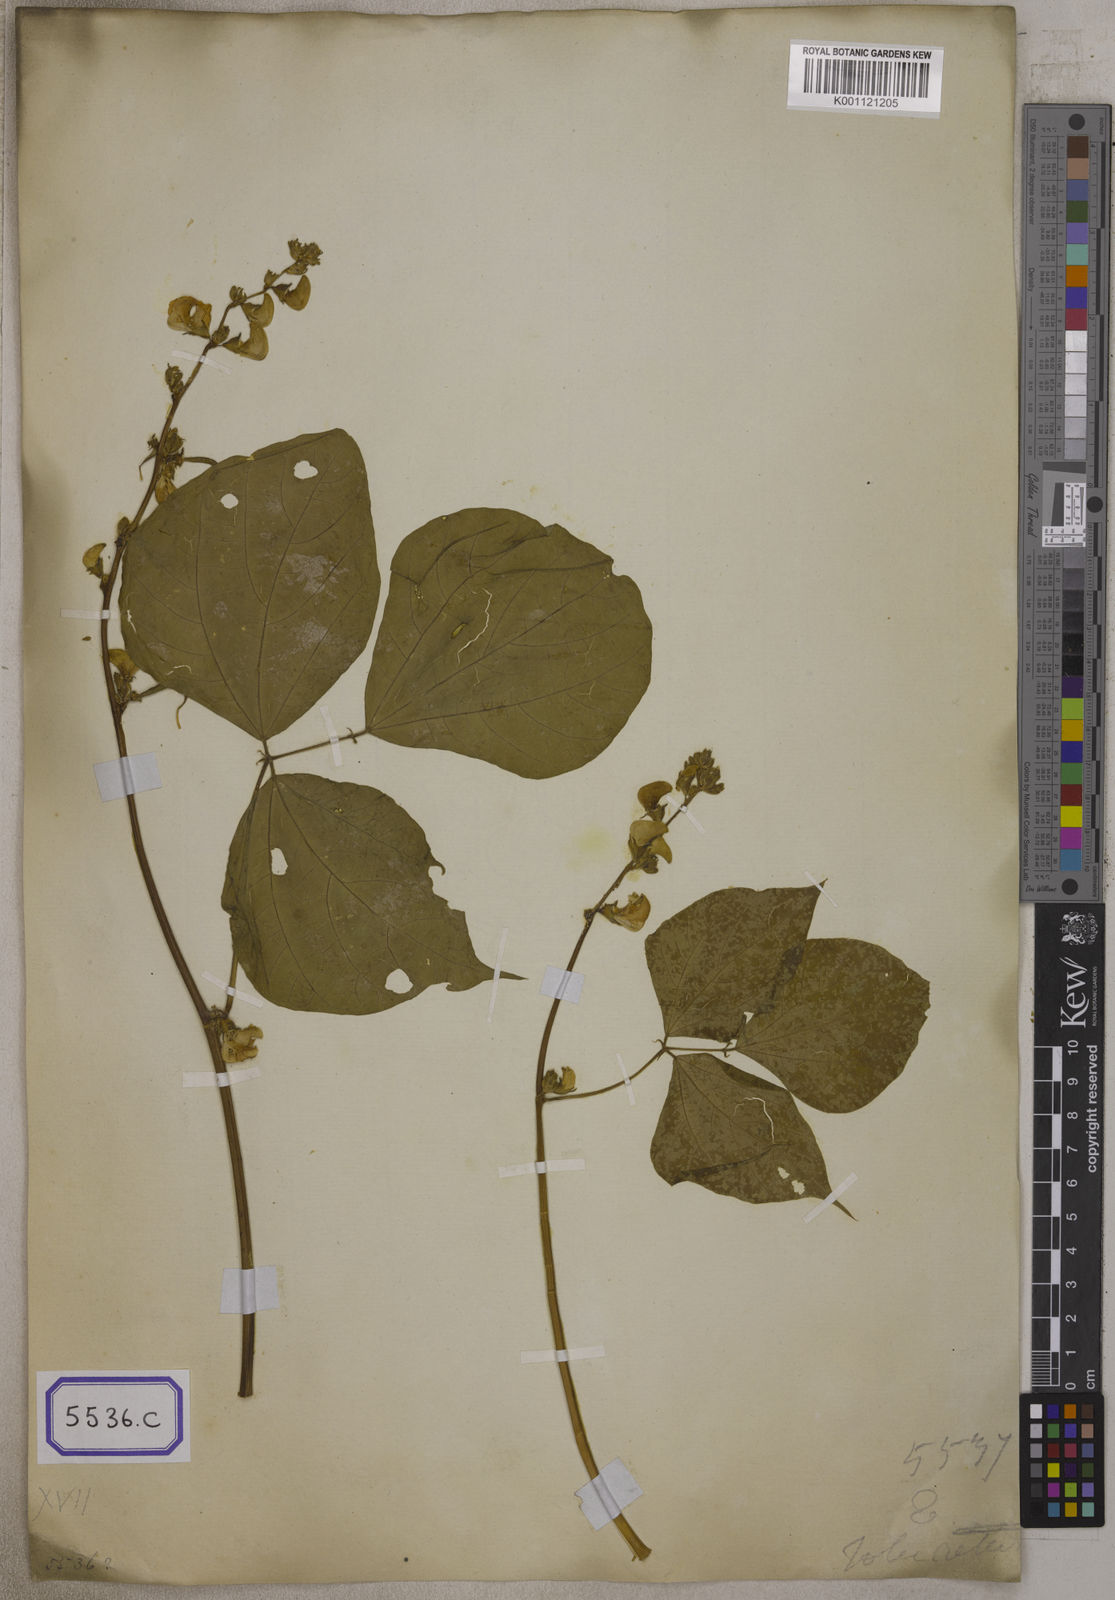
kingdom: Plantae
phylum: Tracheophyta
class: Magnoliopsida
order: Fabales
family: Fabaceae
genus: Lablab
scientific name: Lablab purpureus
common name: Lablab-bean
